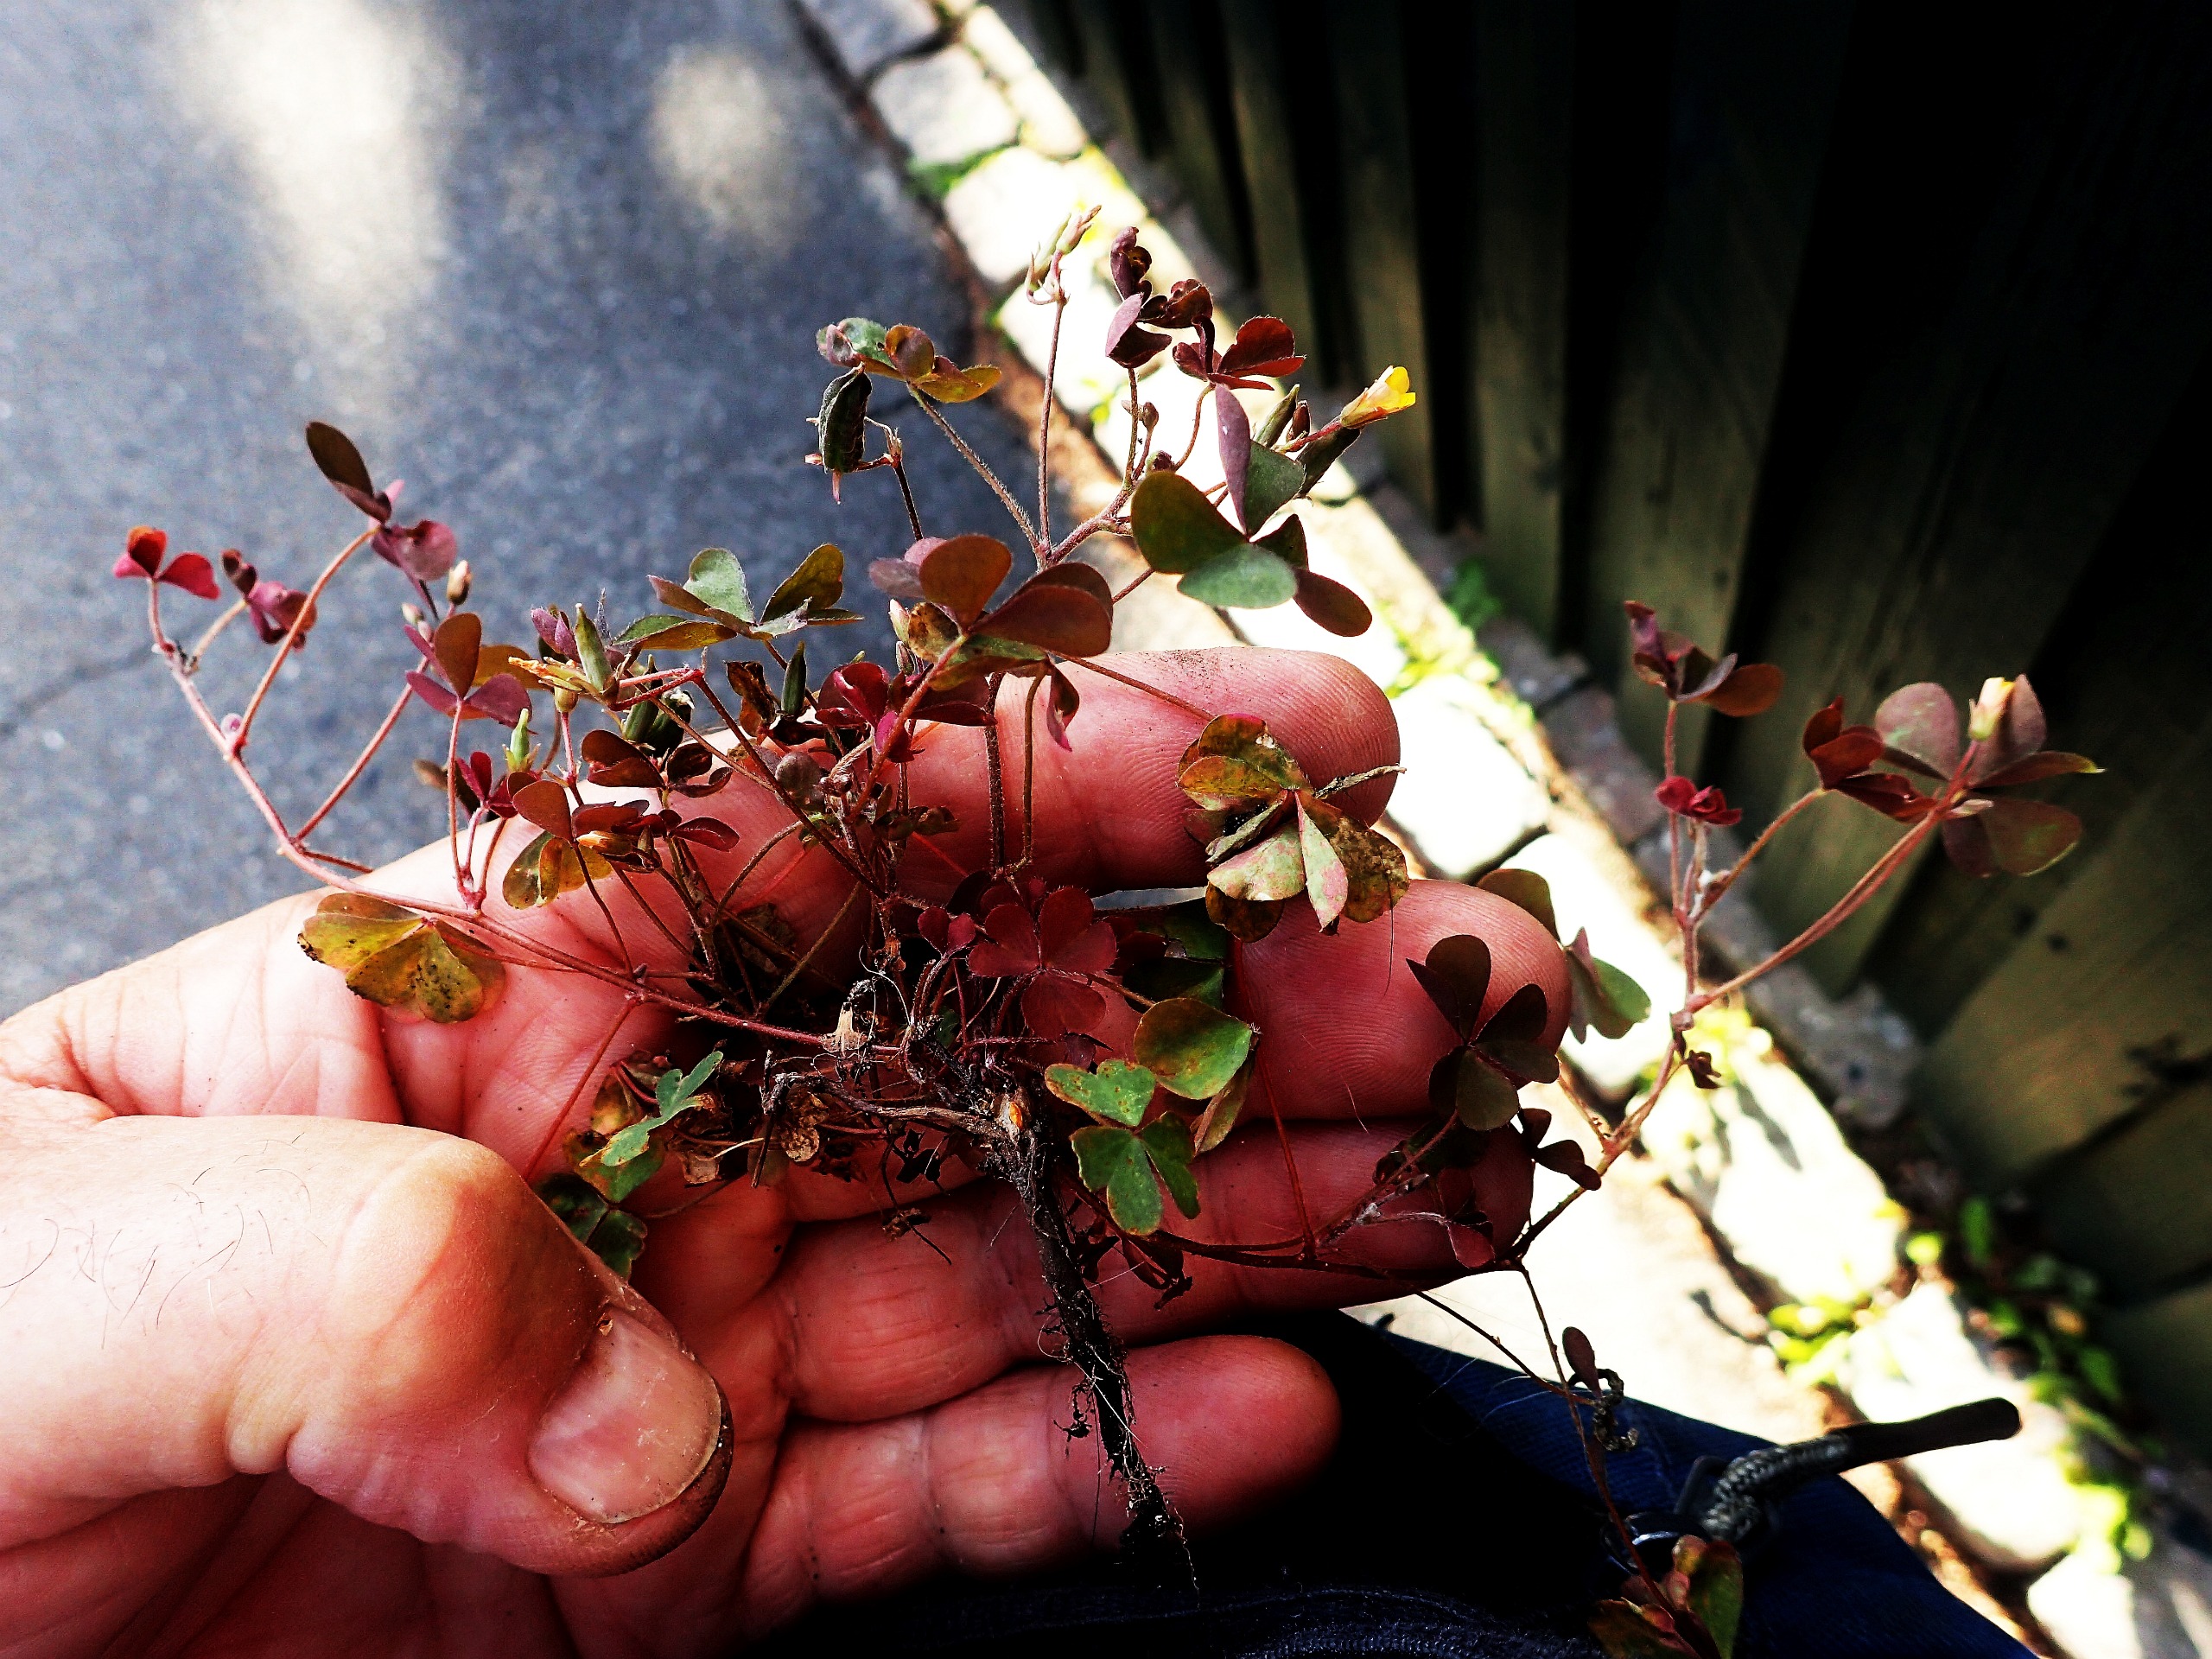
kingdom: Plantae
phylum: Tracheophyta
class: Magnoliopsida
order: Oxalidales
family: Oxalidaceae
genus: Oxalis
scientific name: Oxalis corniculata
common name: Nedliggende surkløver
